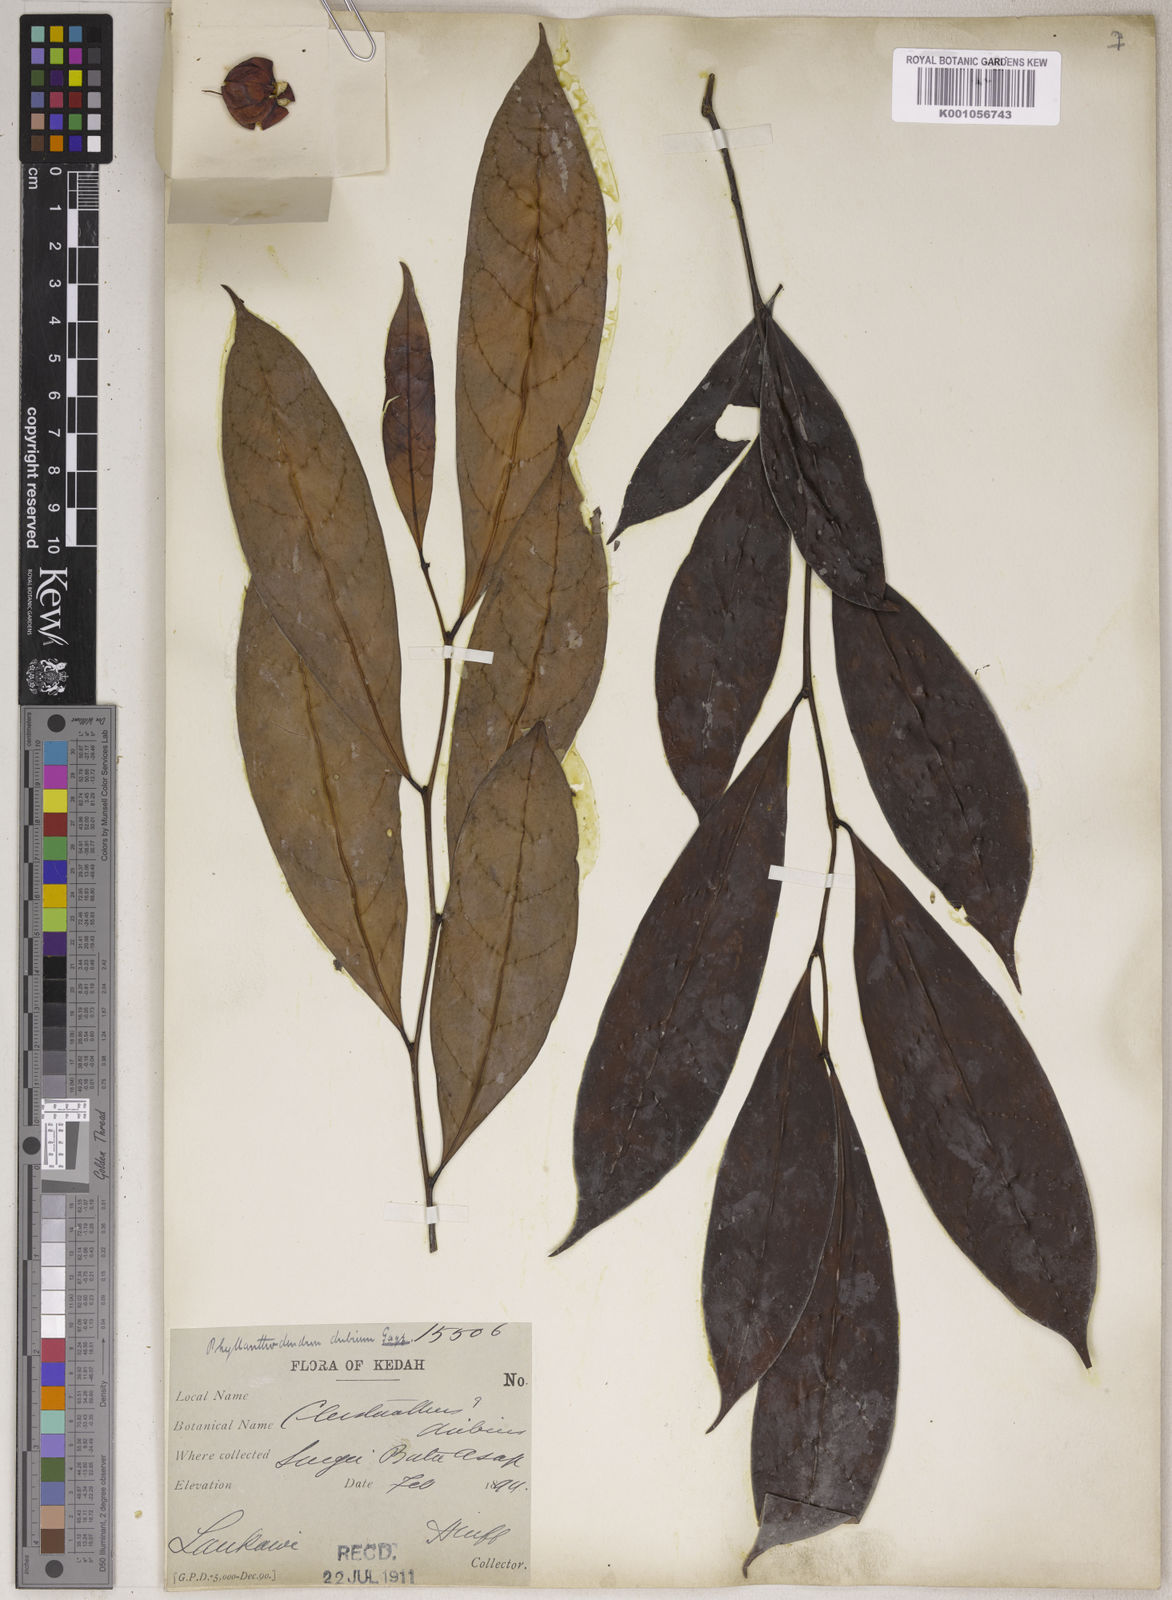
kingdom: Plantae
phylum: Tracheophyta
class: Magnoliopsida
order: Malpighiales
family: Phyllanthaceae
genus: Phyllanthus
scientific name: Phyllanthus roseus
